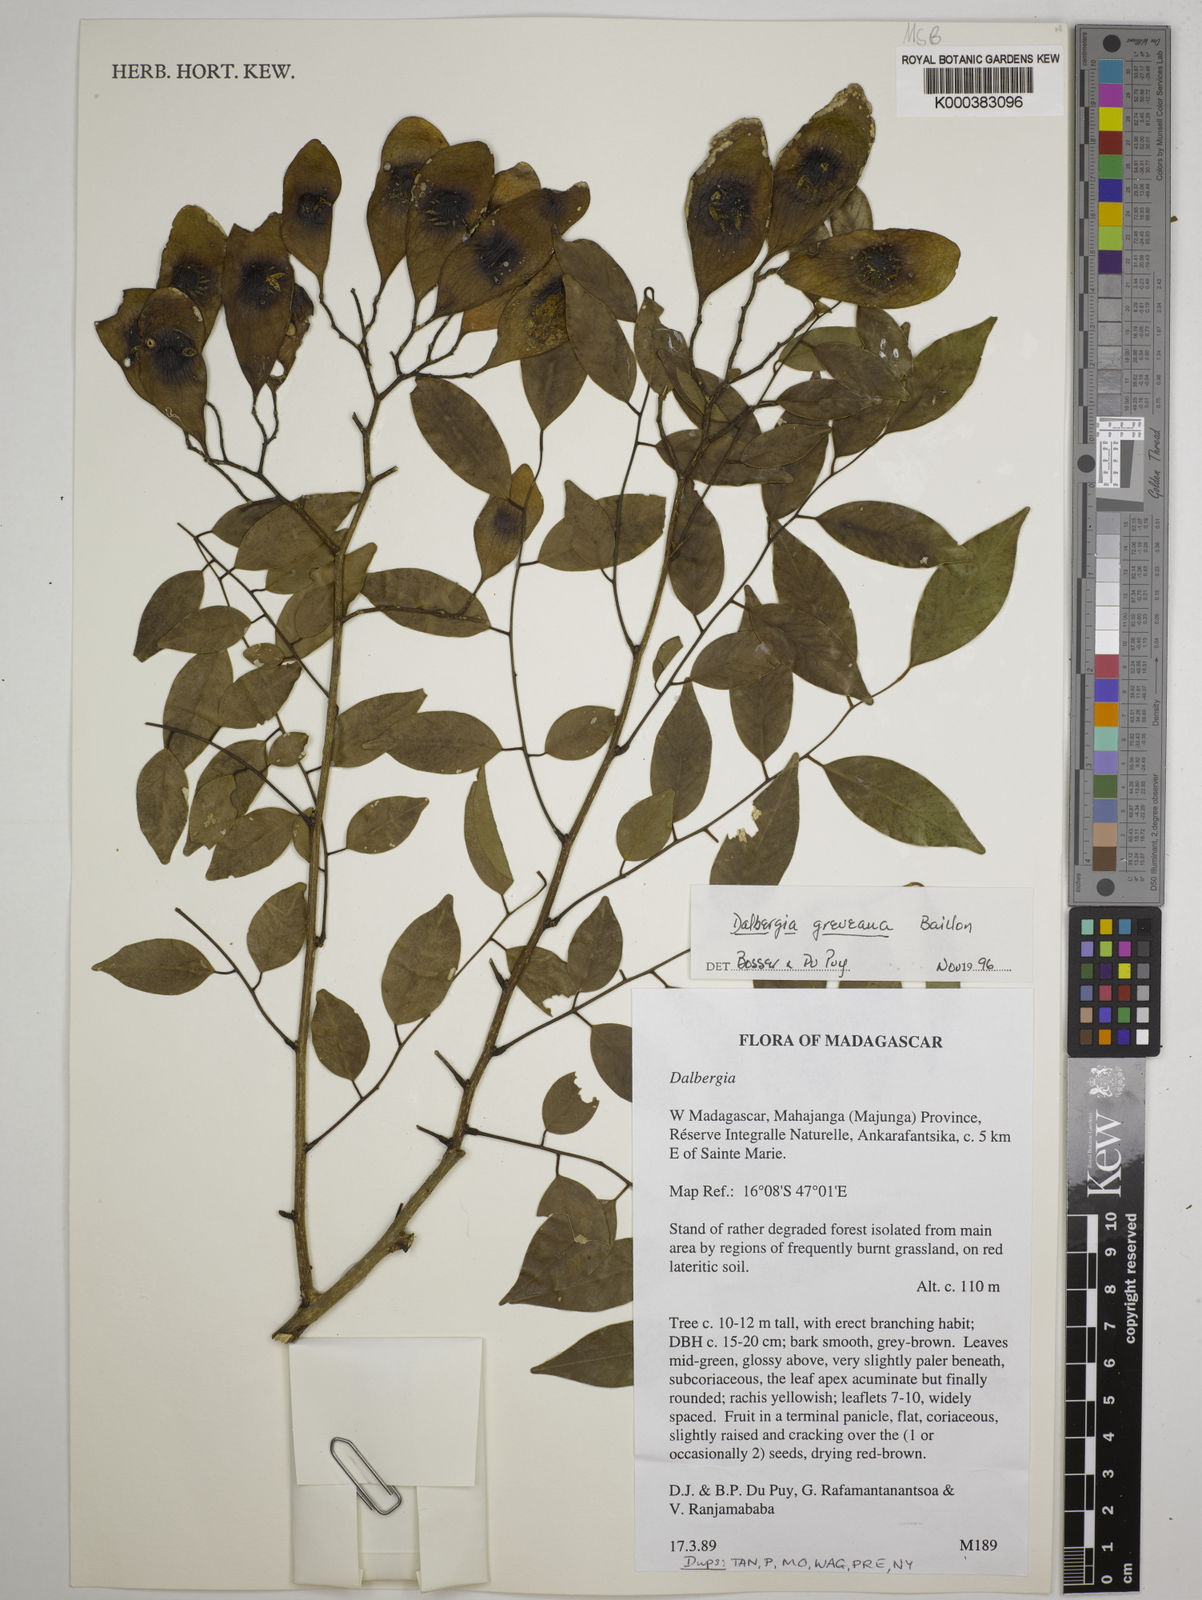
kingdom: Plantae
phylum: Tracheophyta
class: Magnoliopsida
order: Fabales
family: Fabaceae
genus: Dalbergia
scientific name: Dalbergia greveana
